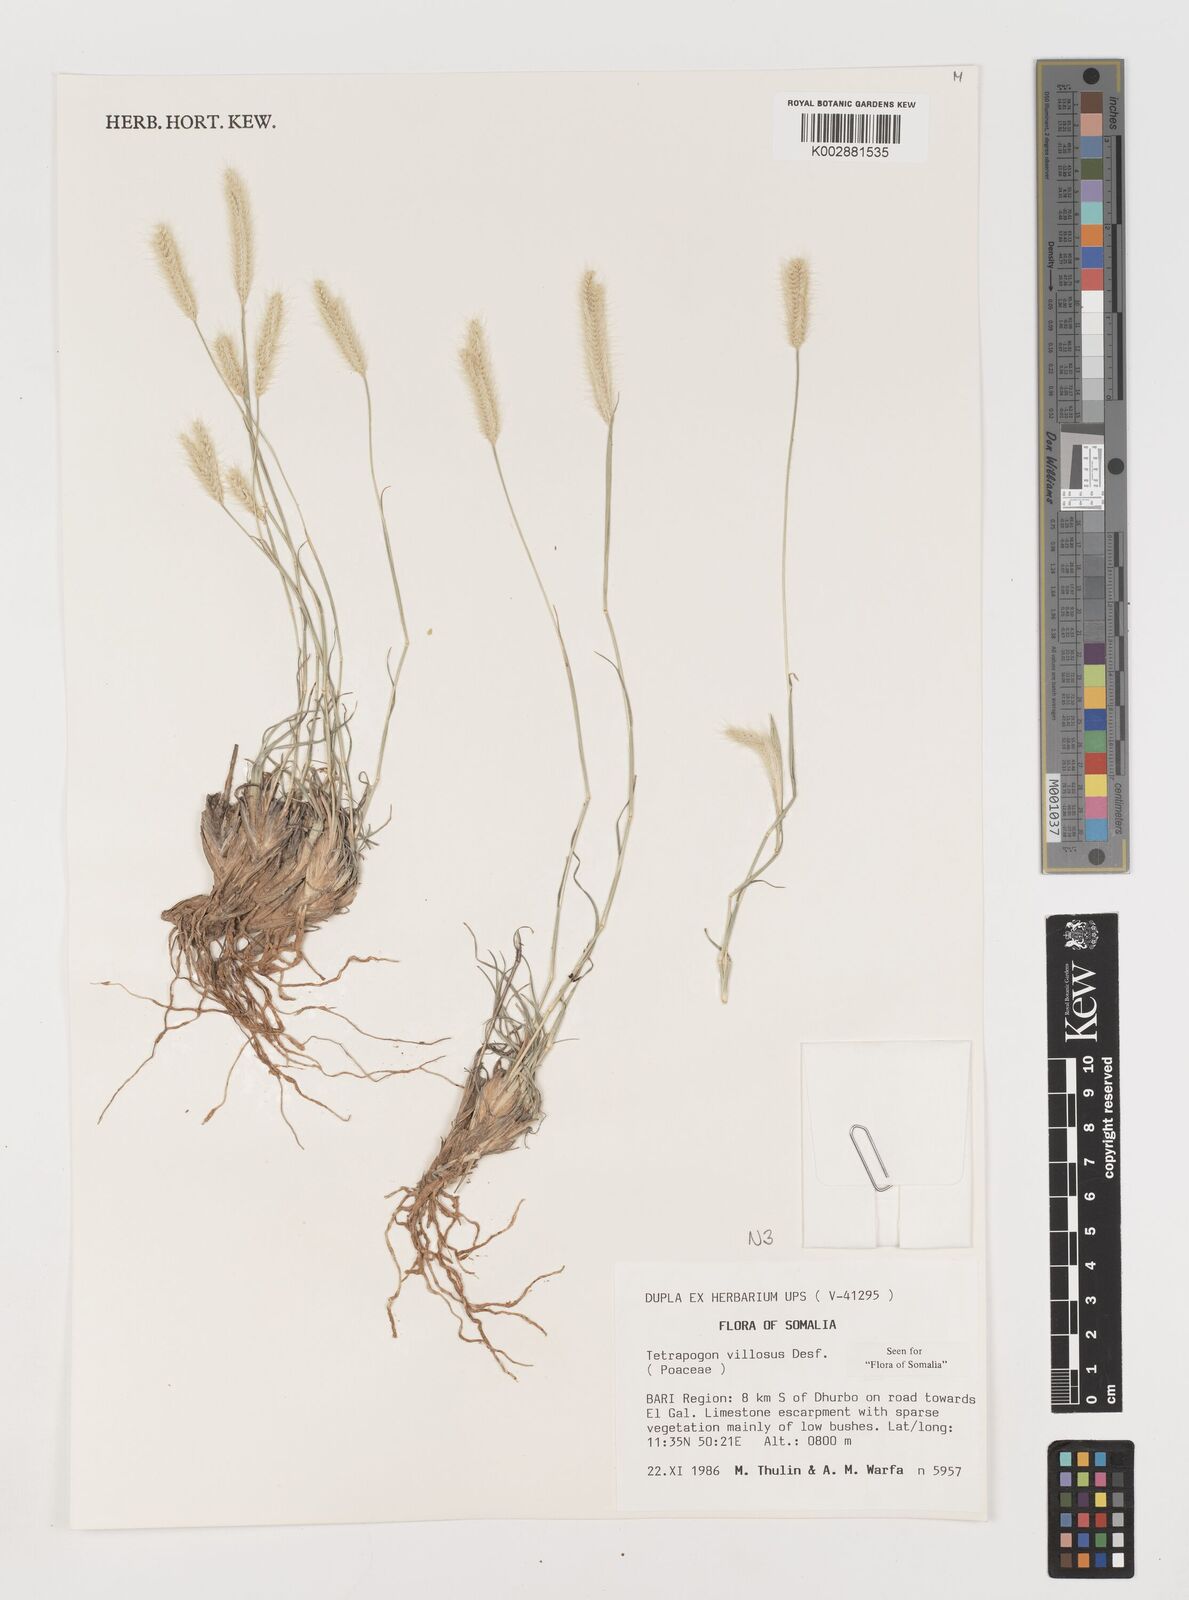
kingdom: Plantae
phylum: Tracheophyta
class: Liliopsida
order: Poales
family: Poaceae
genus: Tetrapogon
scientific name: Tetrapogon villosus
